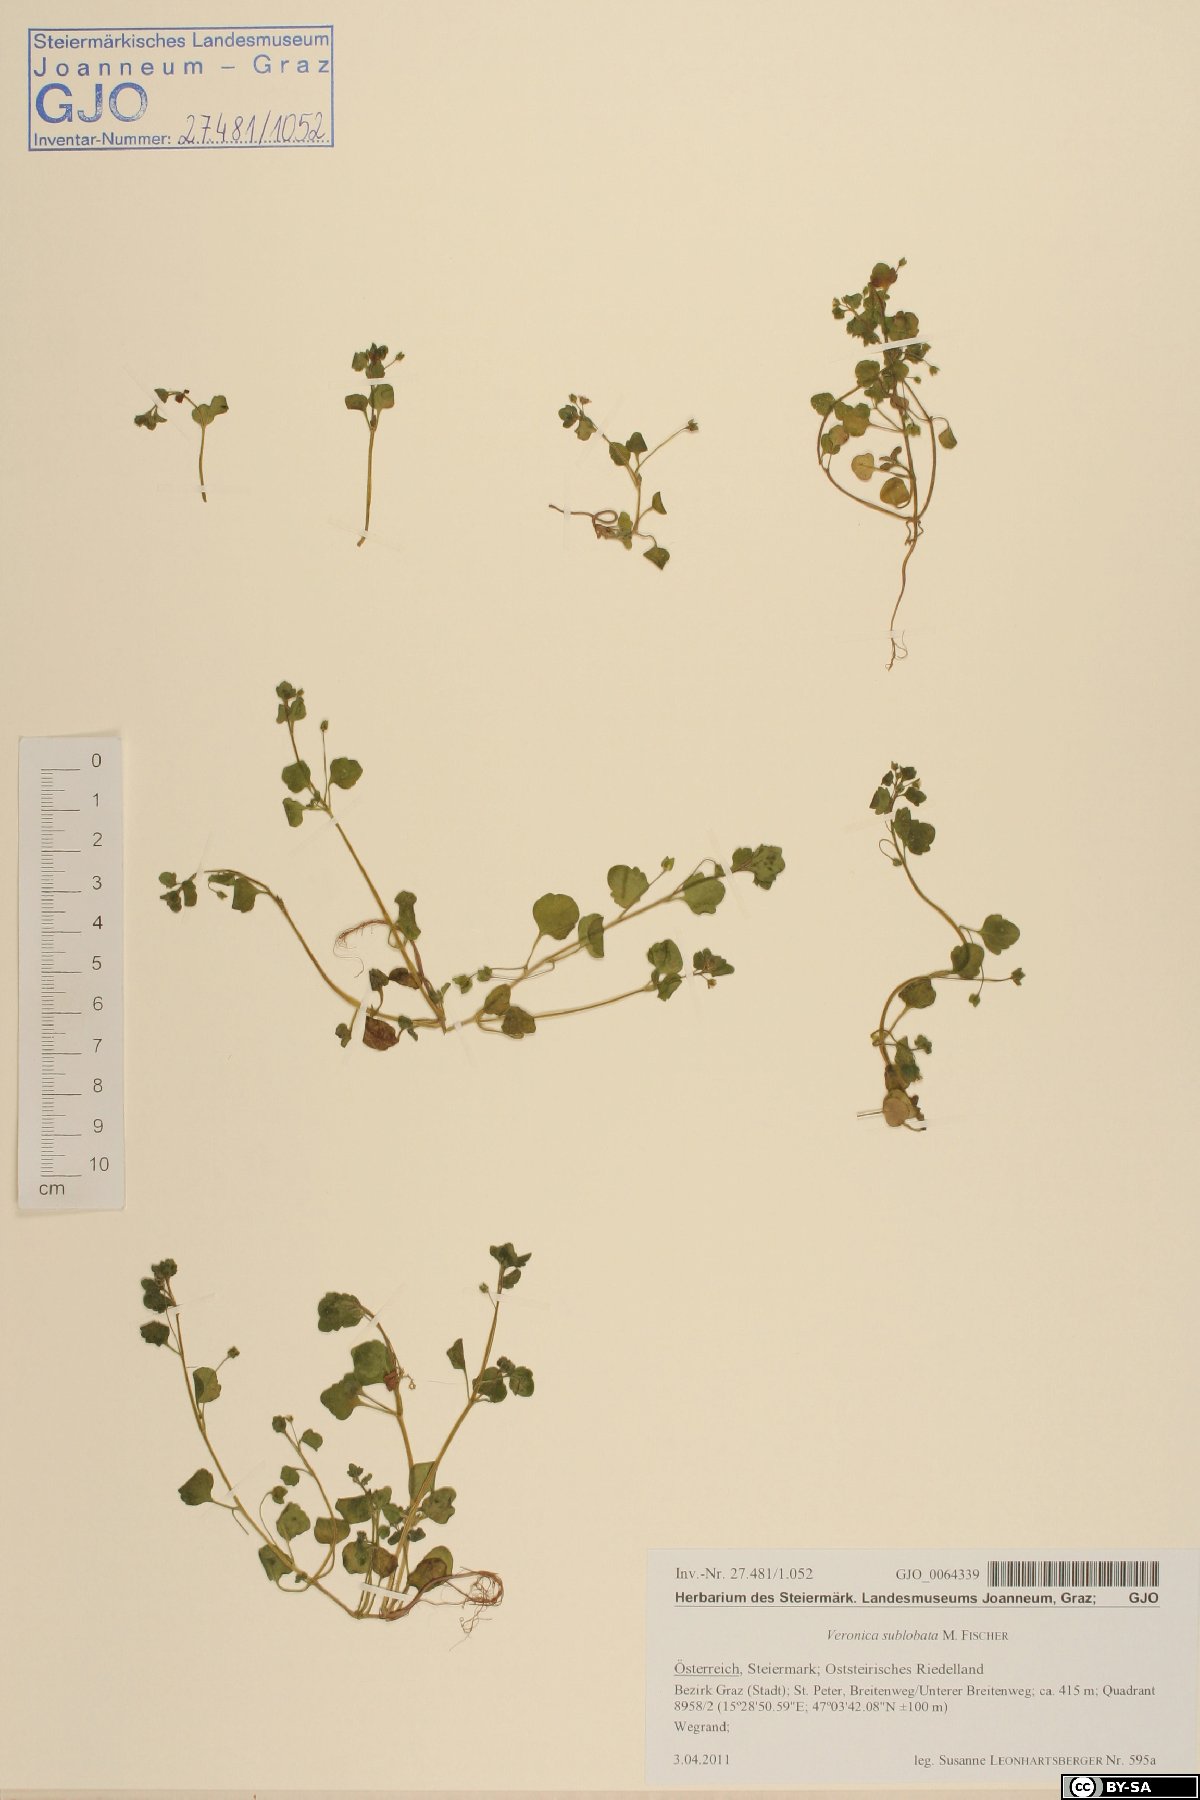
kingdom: Plantae
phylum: Tracheophyta
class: Magnoliopsida
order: Lamiales
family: Plantaginaceae
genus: Veronica
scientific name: Veronica sublobata
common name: False ivy-leaved speedwell
